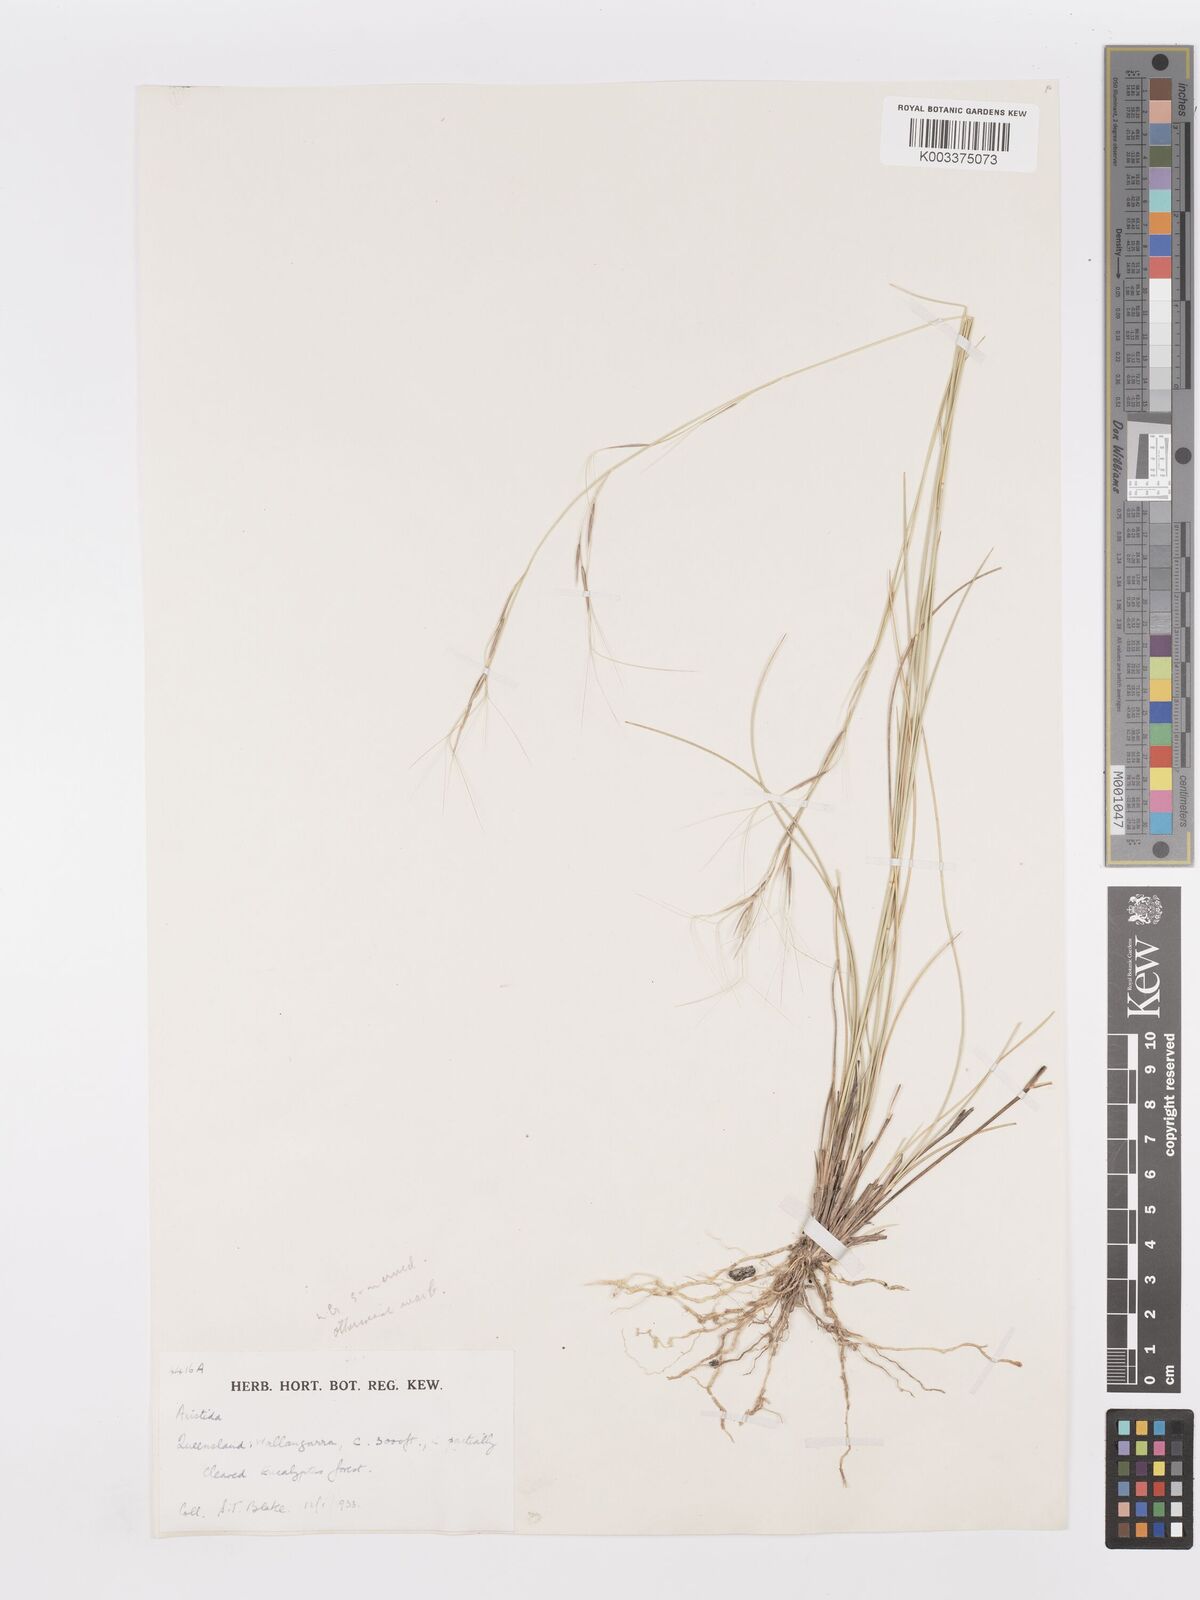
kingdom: Plantae
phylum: Tracheophyta
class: Liliopsida
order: Poales
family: Poaceae
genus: Aristida
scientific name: Aristida warburgii
